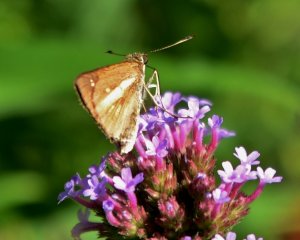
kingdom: Animalia
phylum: Arthropoda
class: Insecta
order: Lepidoptera
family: Hesperiidae
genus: Poanes
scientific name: Poanes viator
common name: Broad-winged Skipper
